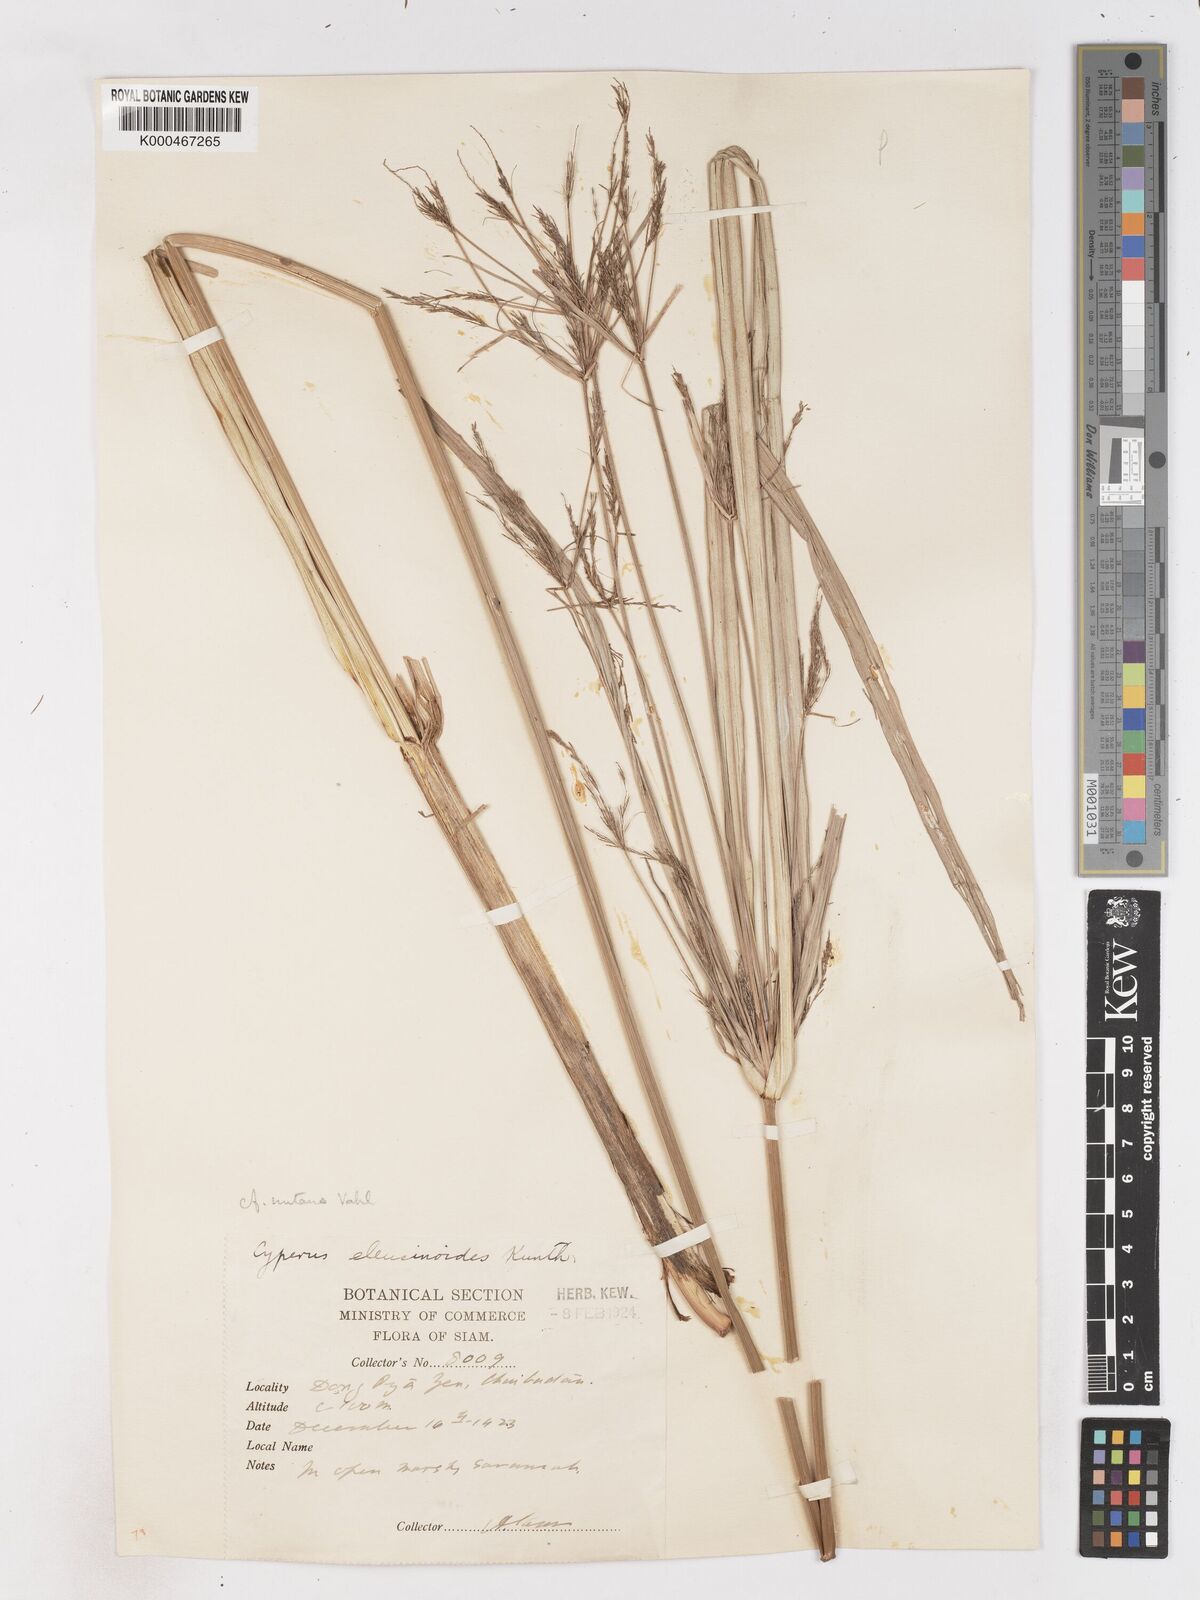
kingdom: Plantae
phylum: Tracheophyta
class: Liliopsida
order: Poales
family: Cyperaceae
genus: Cyperus
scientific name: Cyperus nutans
